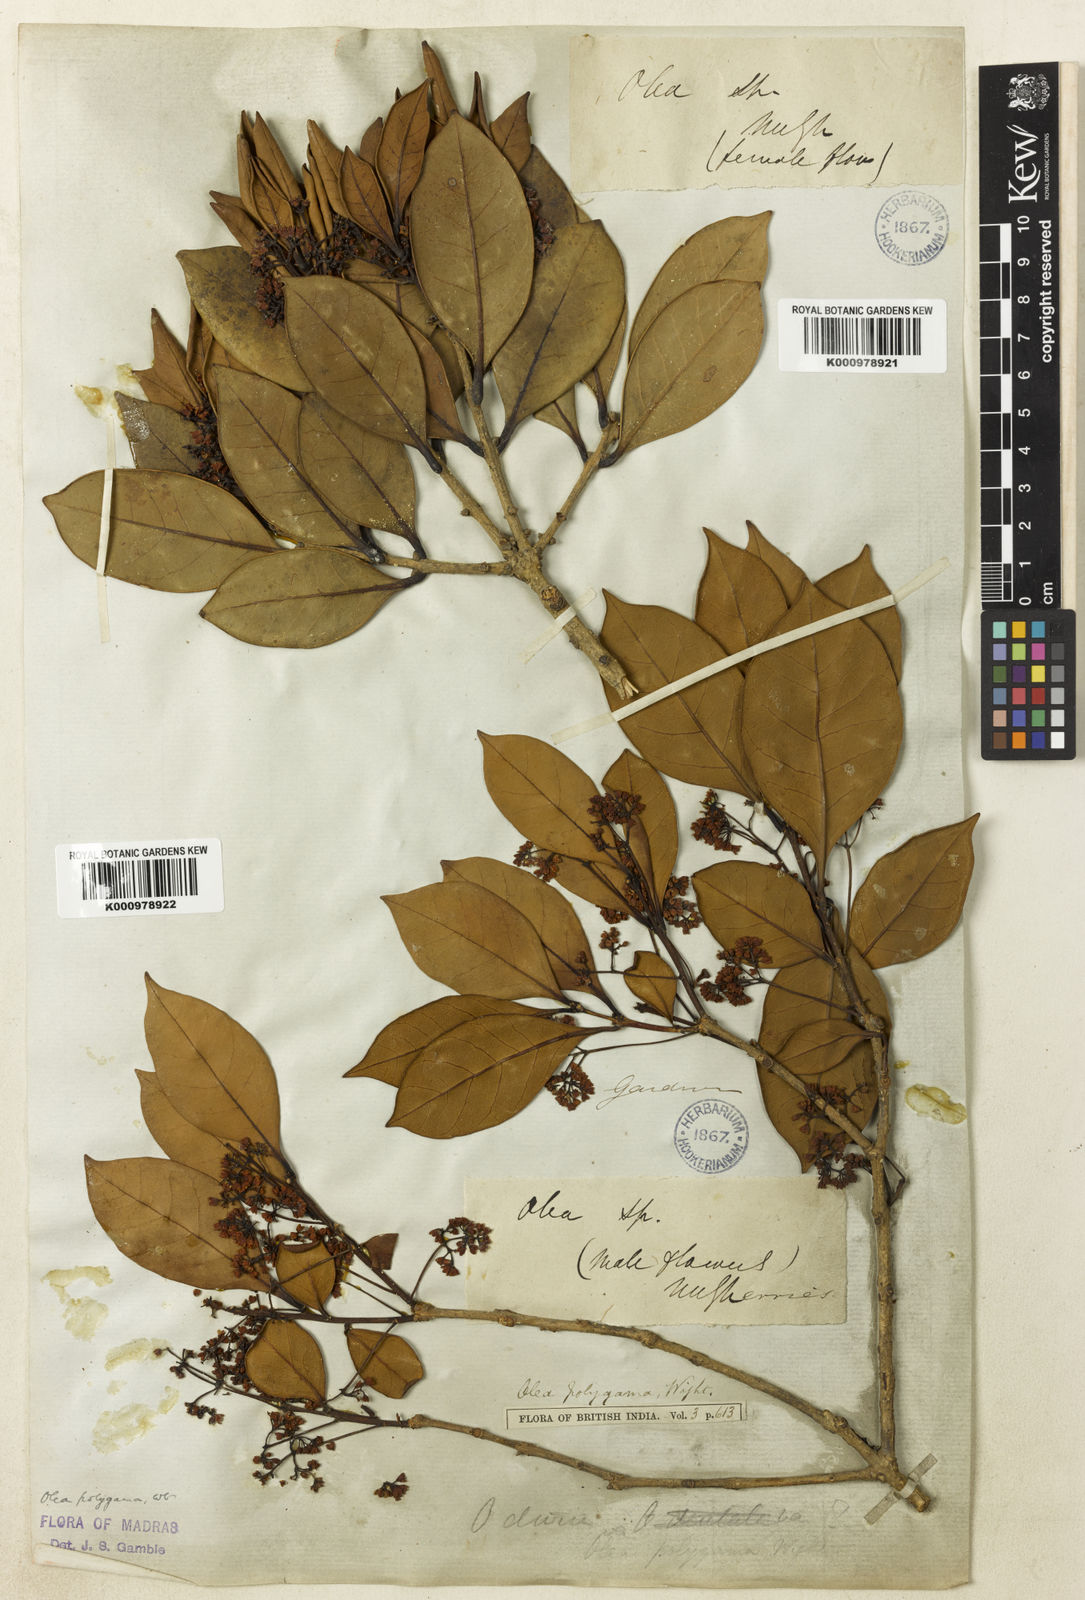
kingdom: Plantae
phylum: Tracheophyta
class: Magnoliopsida
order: Lamiales
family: Oleaceae
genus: Tetrapilus
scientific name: Tetrapilus polygamus
